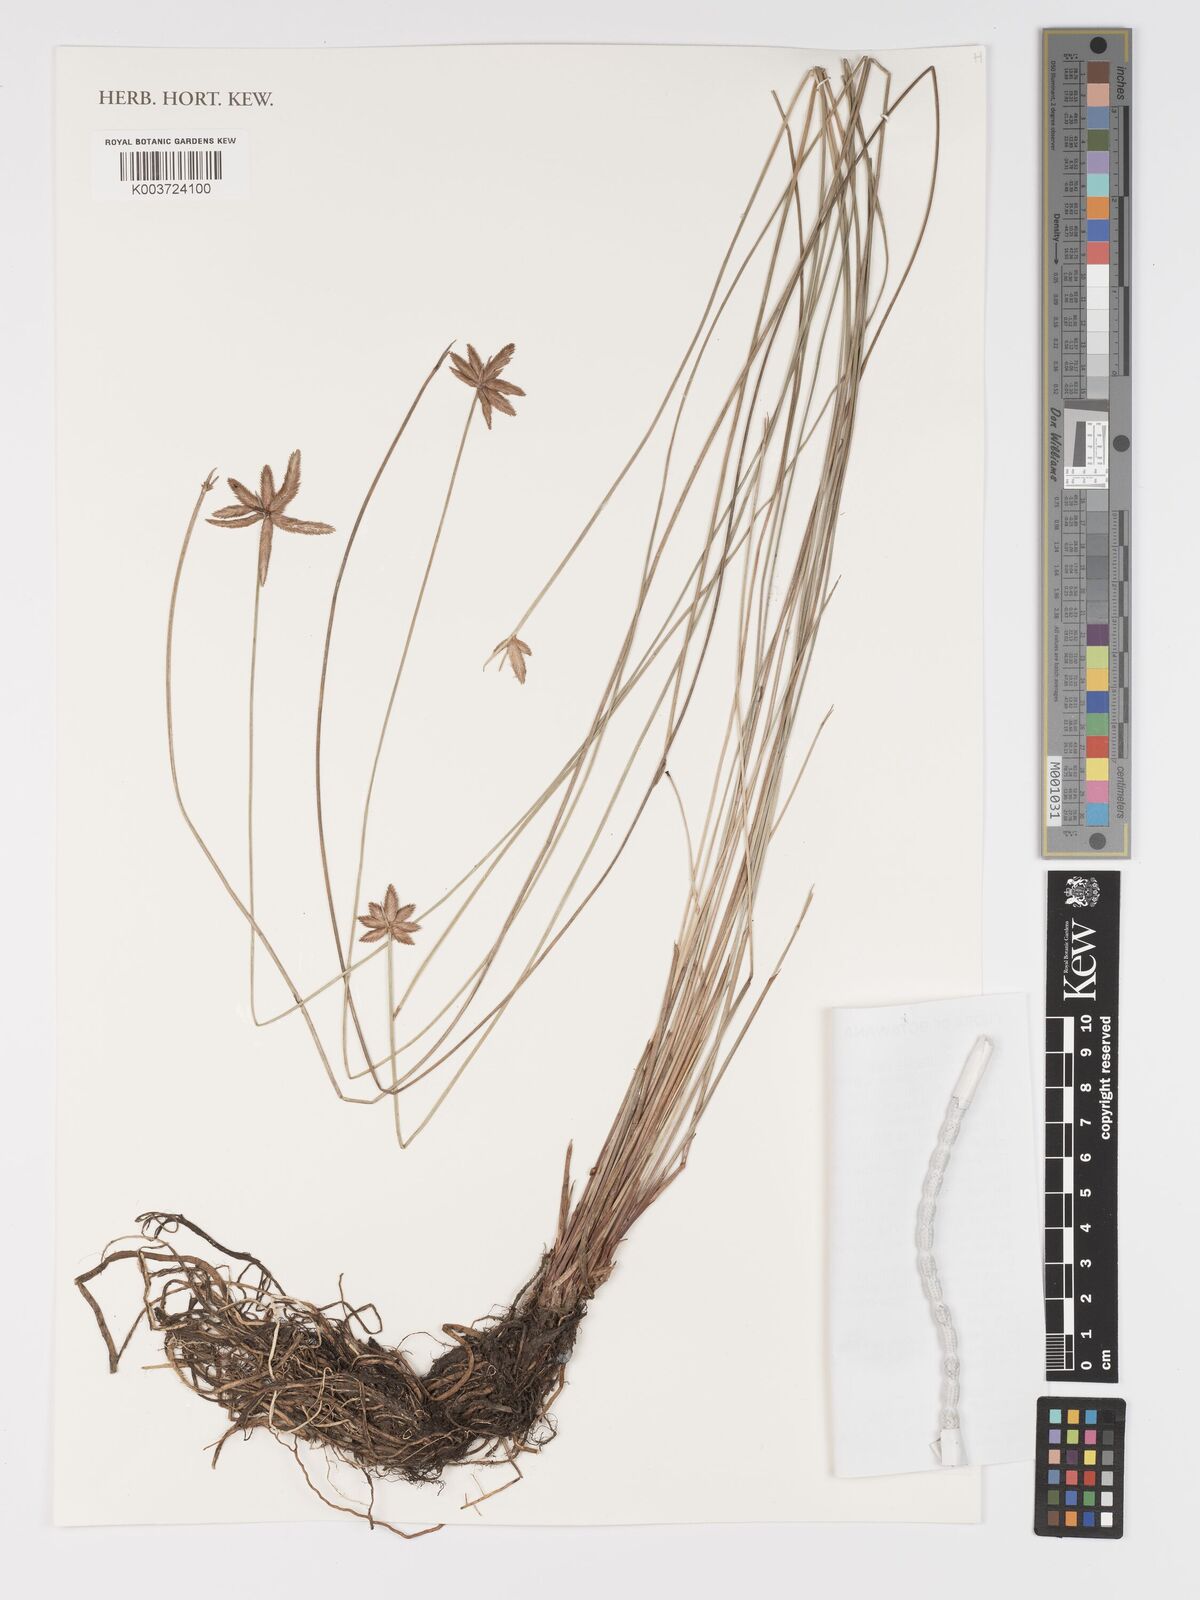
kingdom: Plantae
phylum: Tracheophyta
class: Liliopsida
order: Poales
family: Cyperaceae
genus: Cyperus
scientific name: Cyperus compressus
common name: Poorland flatsedge
